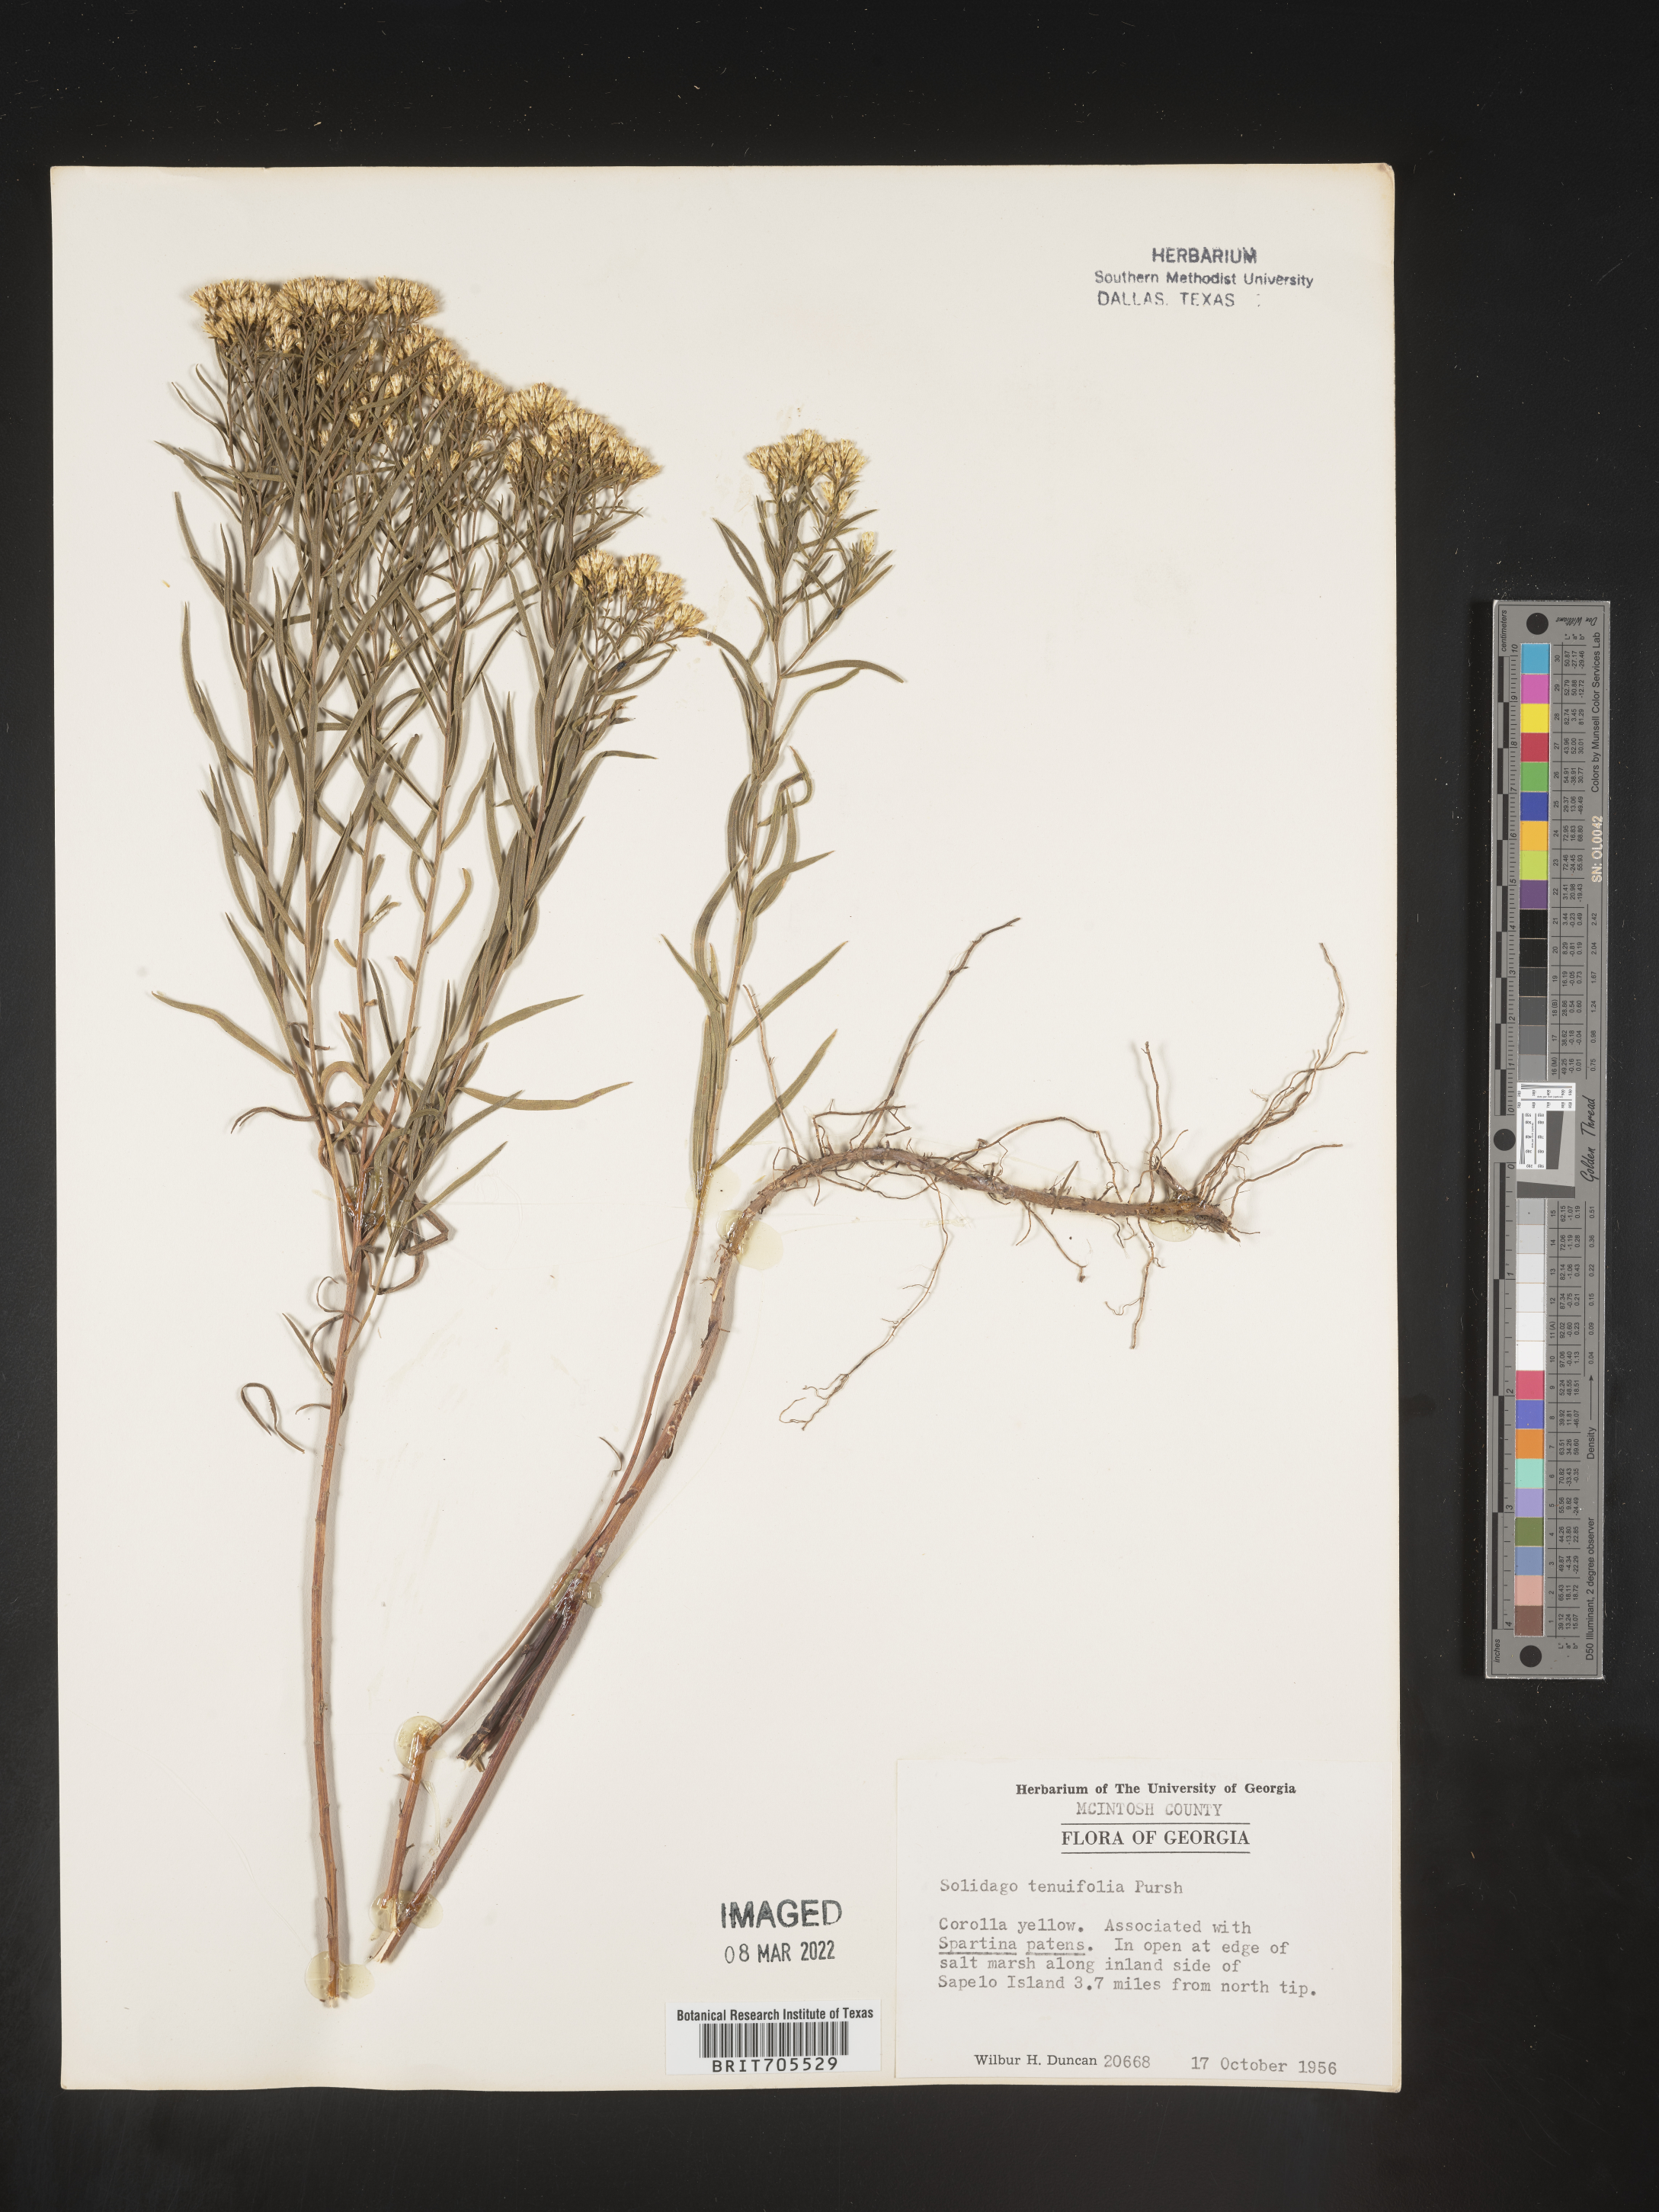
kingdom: Plantae
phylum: Tracheophyta
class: Magnoliopsida
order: Asterales
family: Asteraceae
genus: Euthamia
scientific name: Euthamia caroliniana
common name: Coastal plain goldentop
